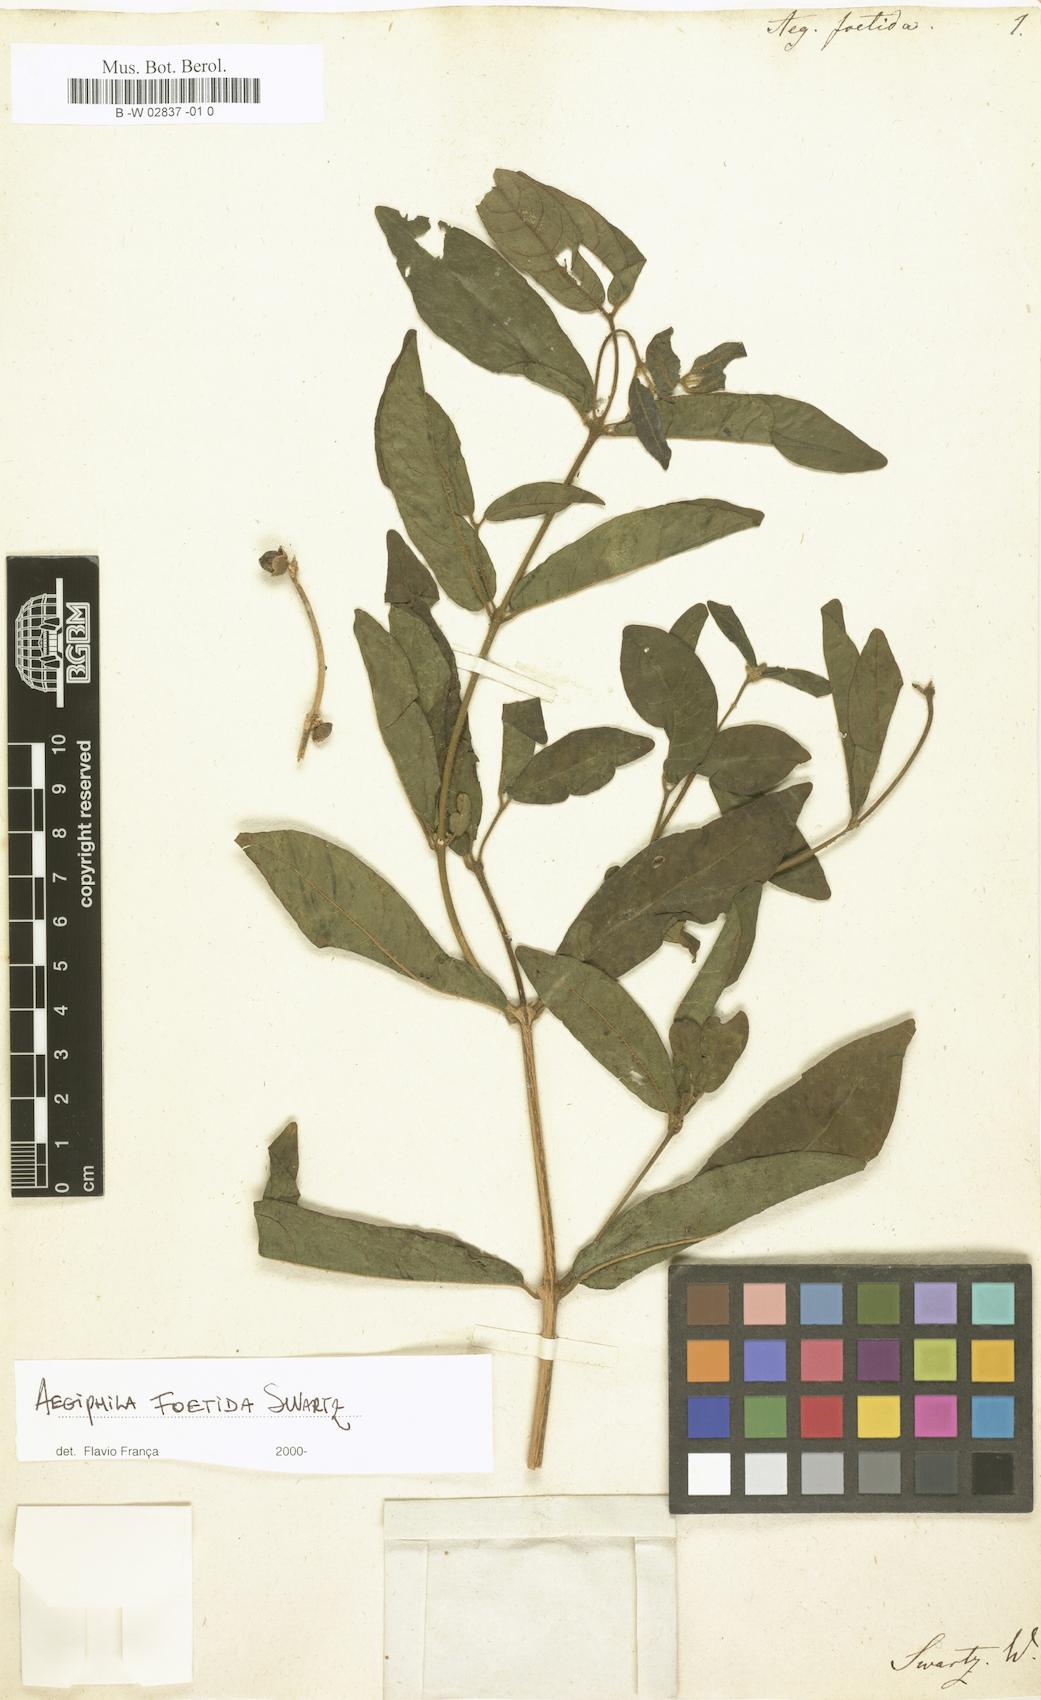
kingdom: Plantae
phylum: Tracheophyta
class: Magnoliopsida
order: Lamiales
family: Lamiaceae
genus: Aegiphila
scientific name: Aegiphila foetida
